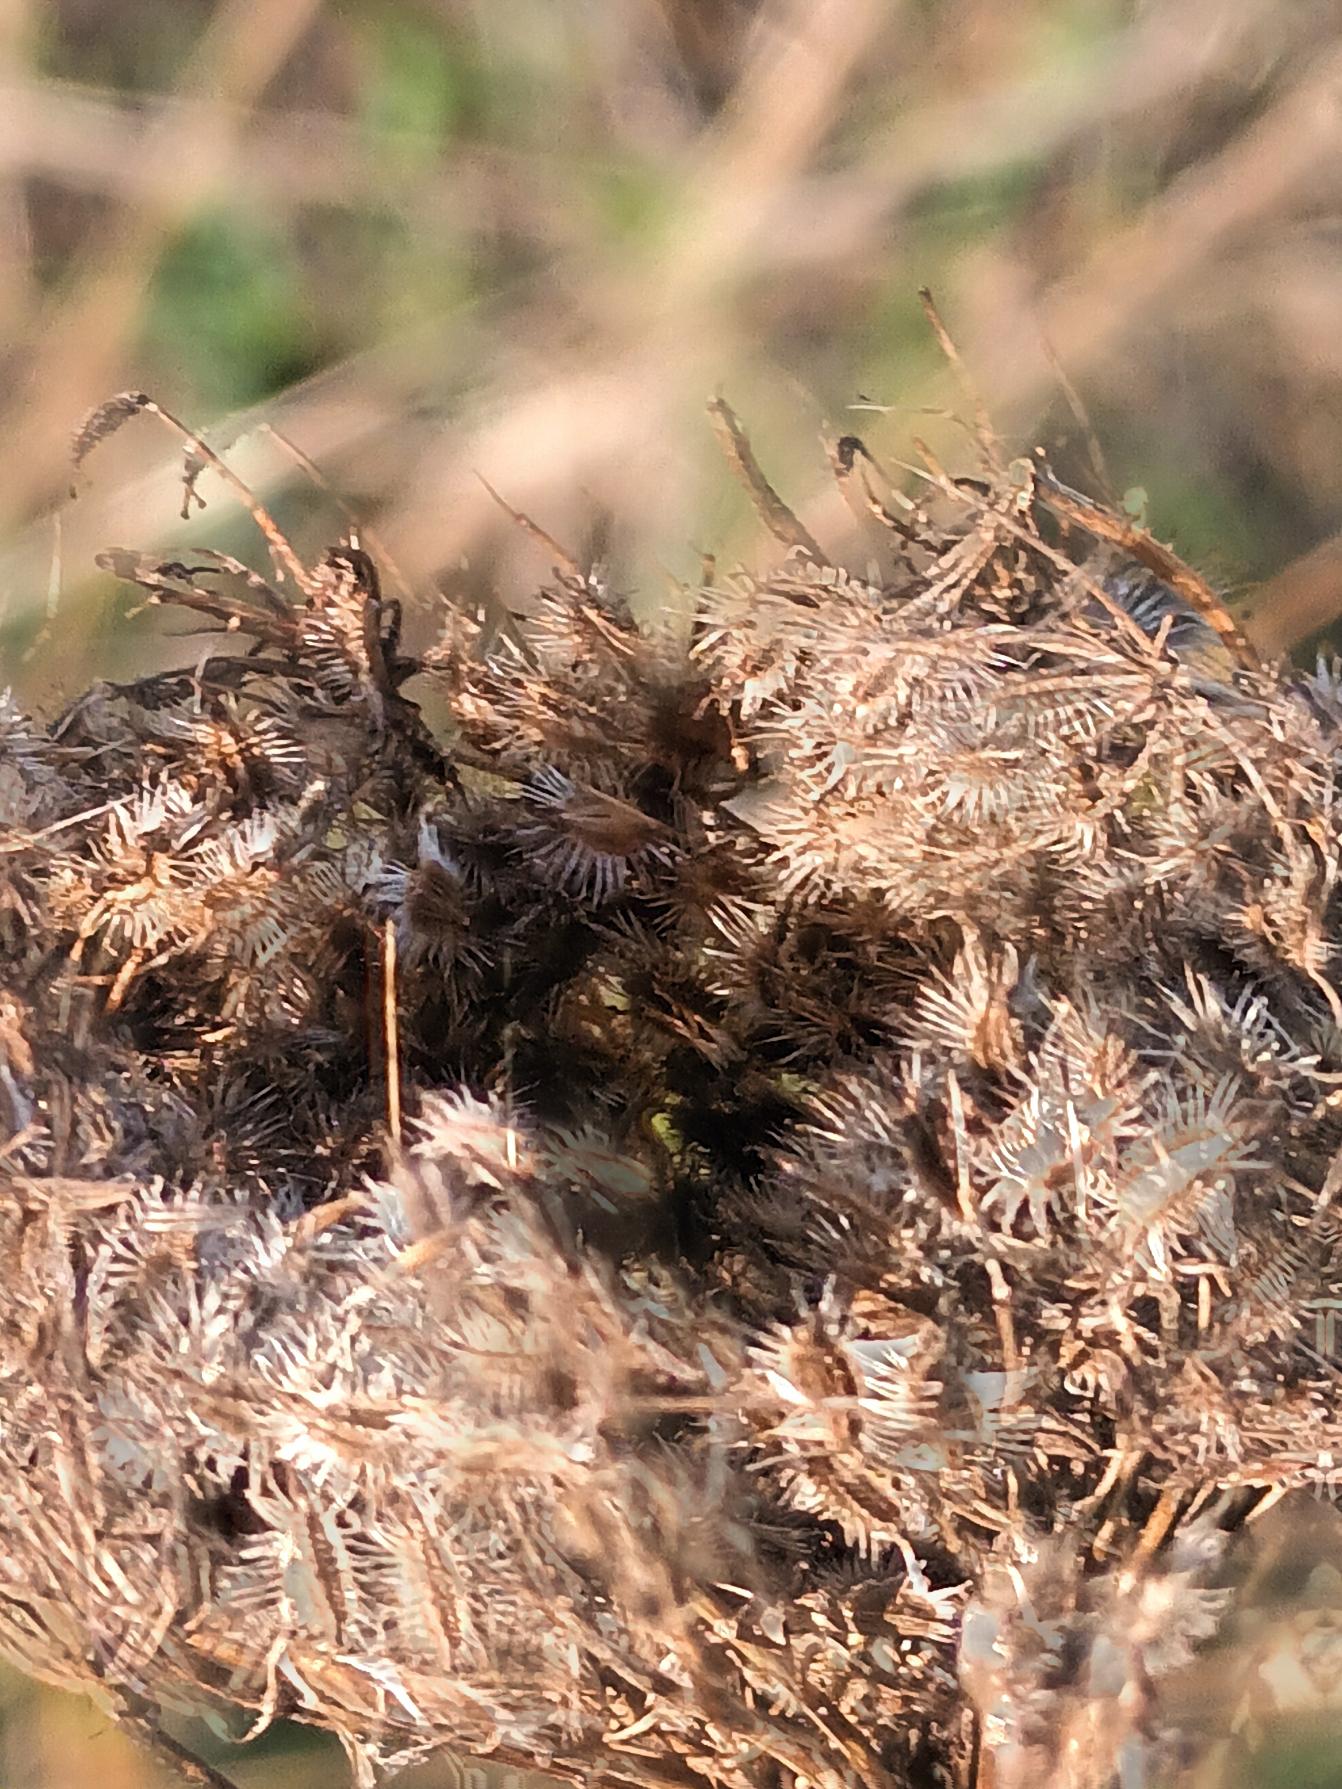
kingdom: Plantae
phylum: Tracheophyta
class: Magnoliopsida
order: Apiales
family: Apiaceae
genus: Daucus
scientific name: Daucus carota
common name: Gulerod
